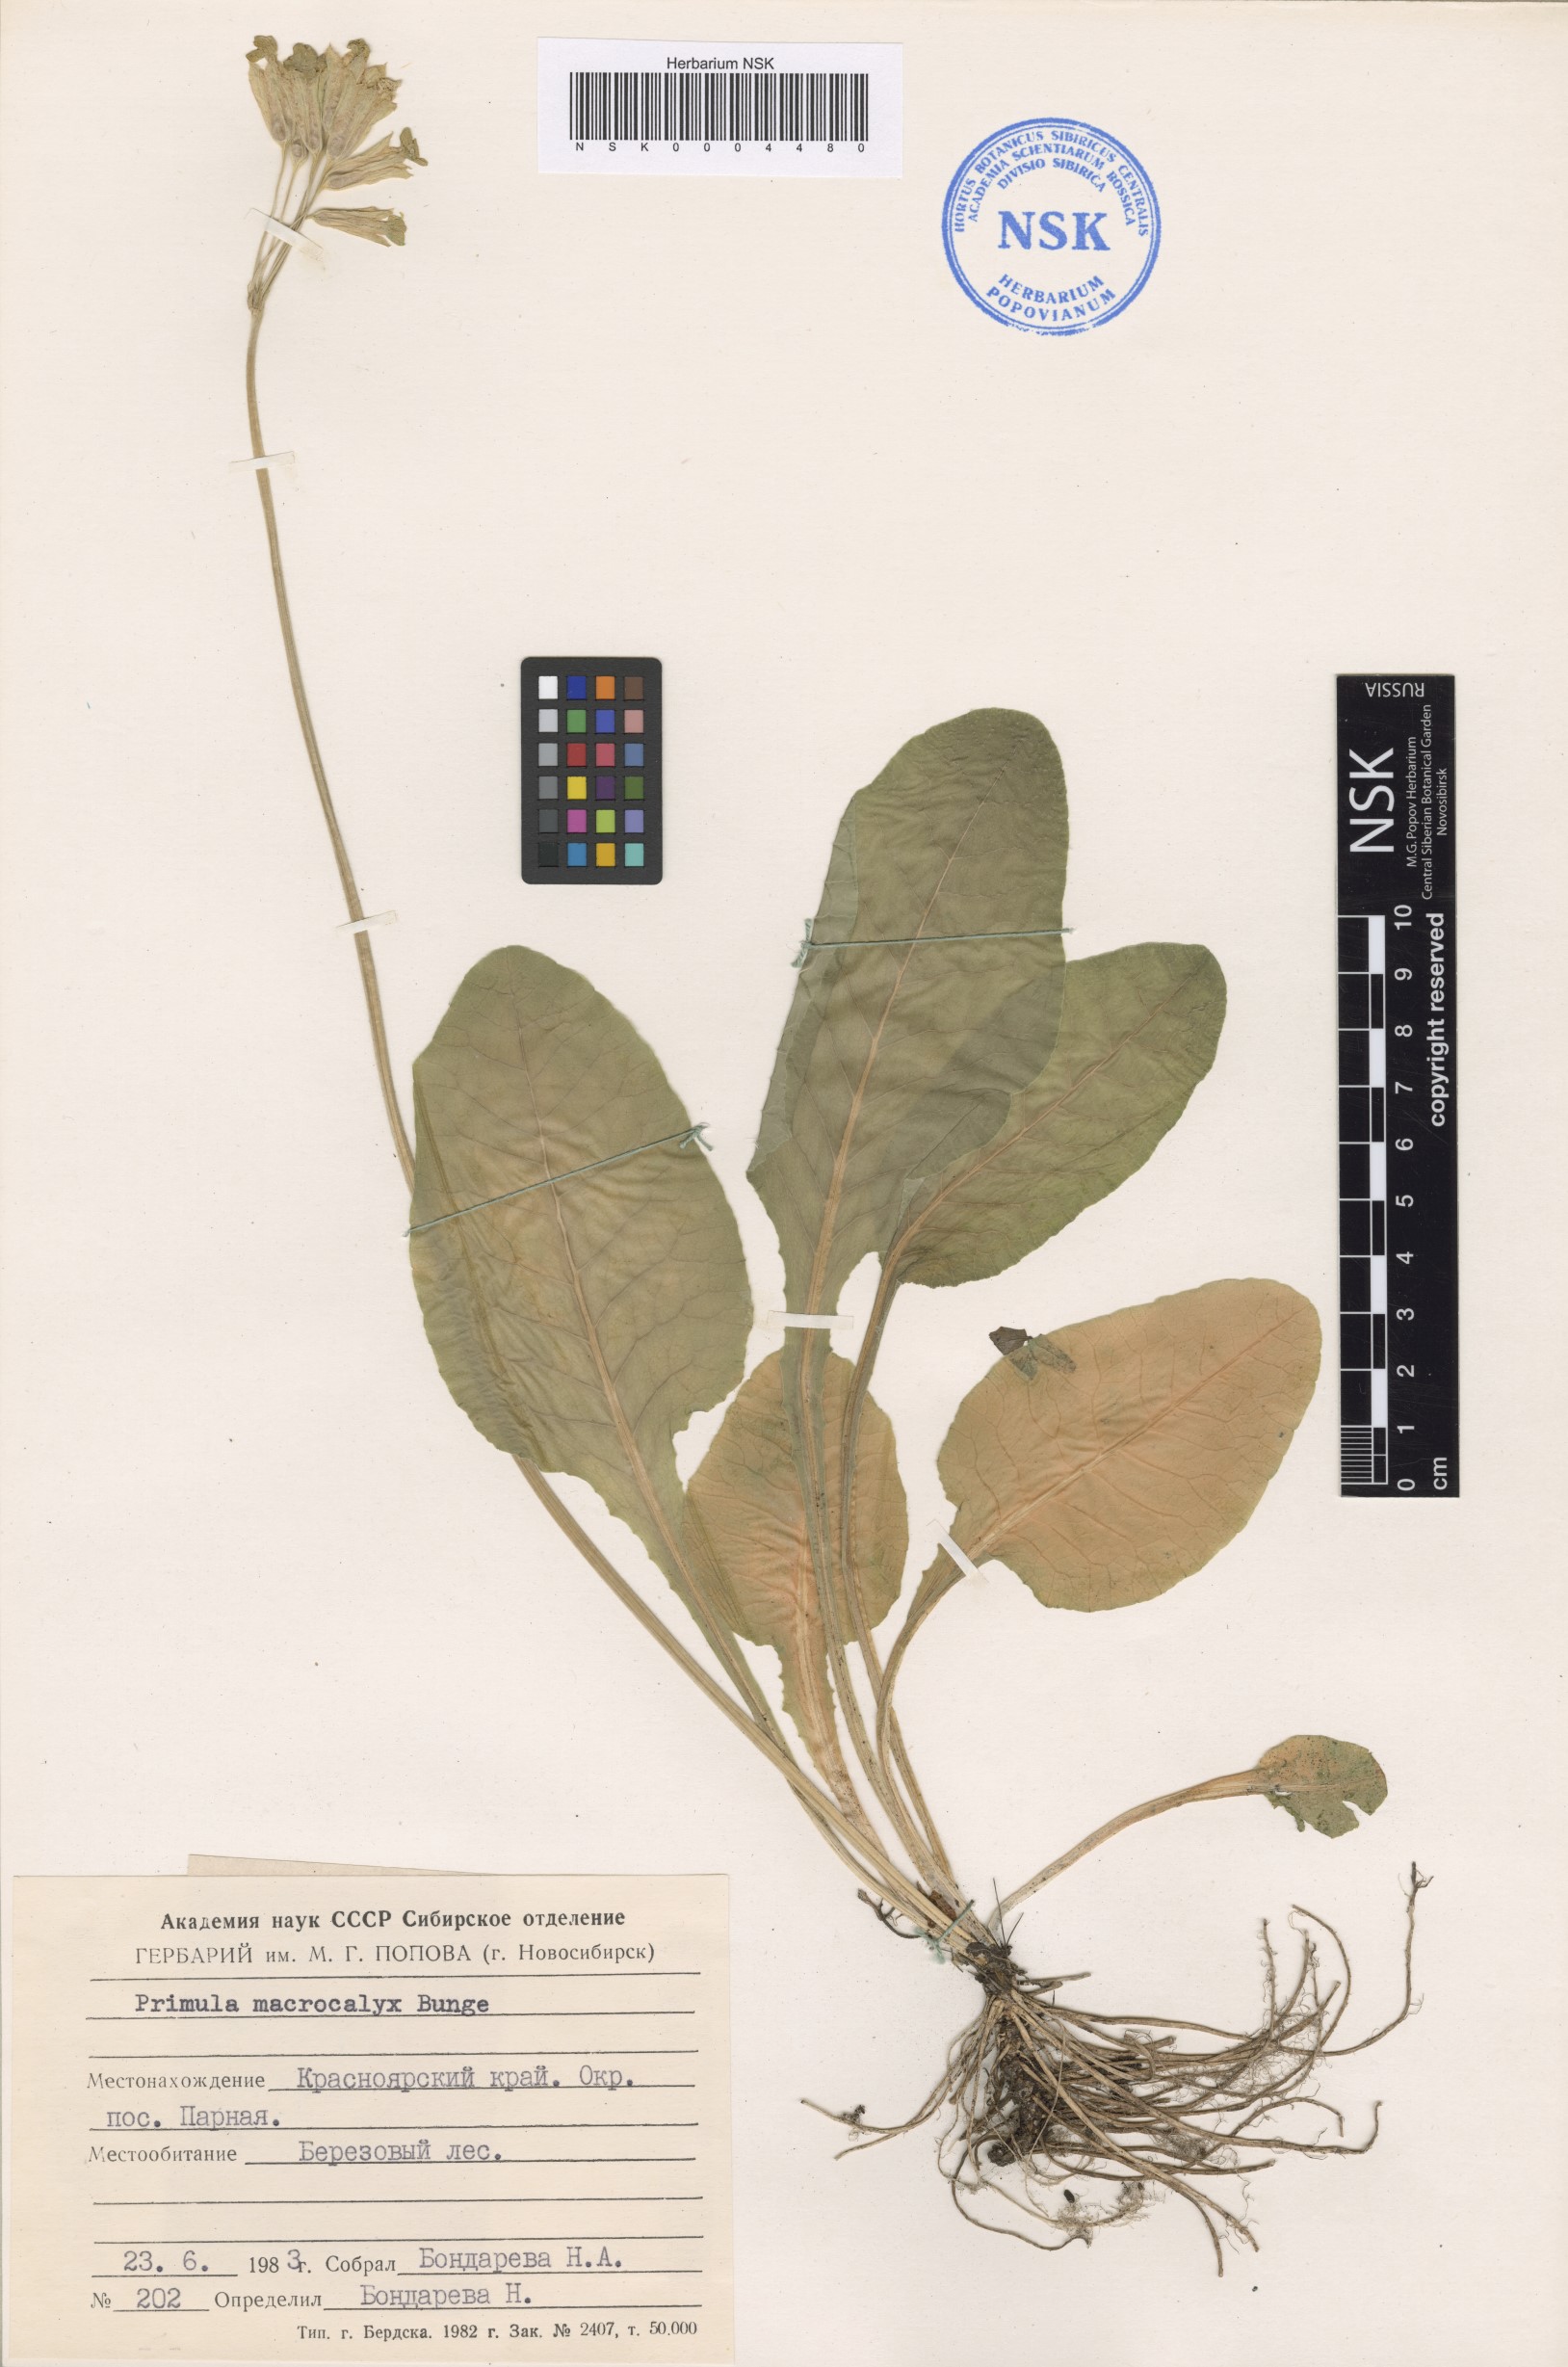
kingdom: Plantae
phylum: Tracheophyta
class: Magnoliopsida
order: Ericales
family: Primulaceae
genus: Primula
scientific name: Primula veris
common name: Cowslip
